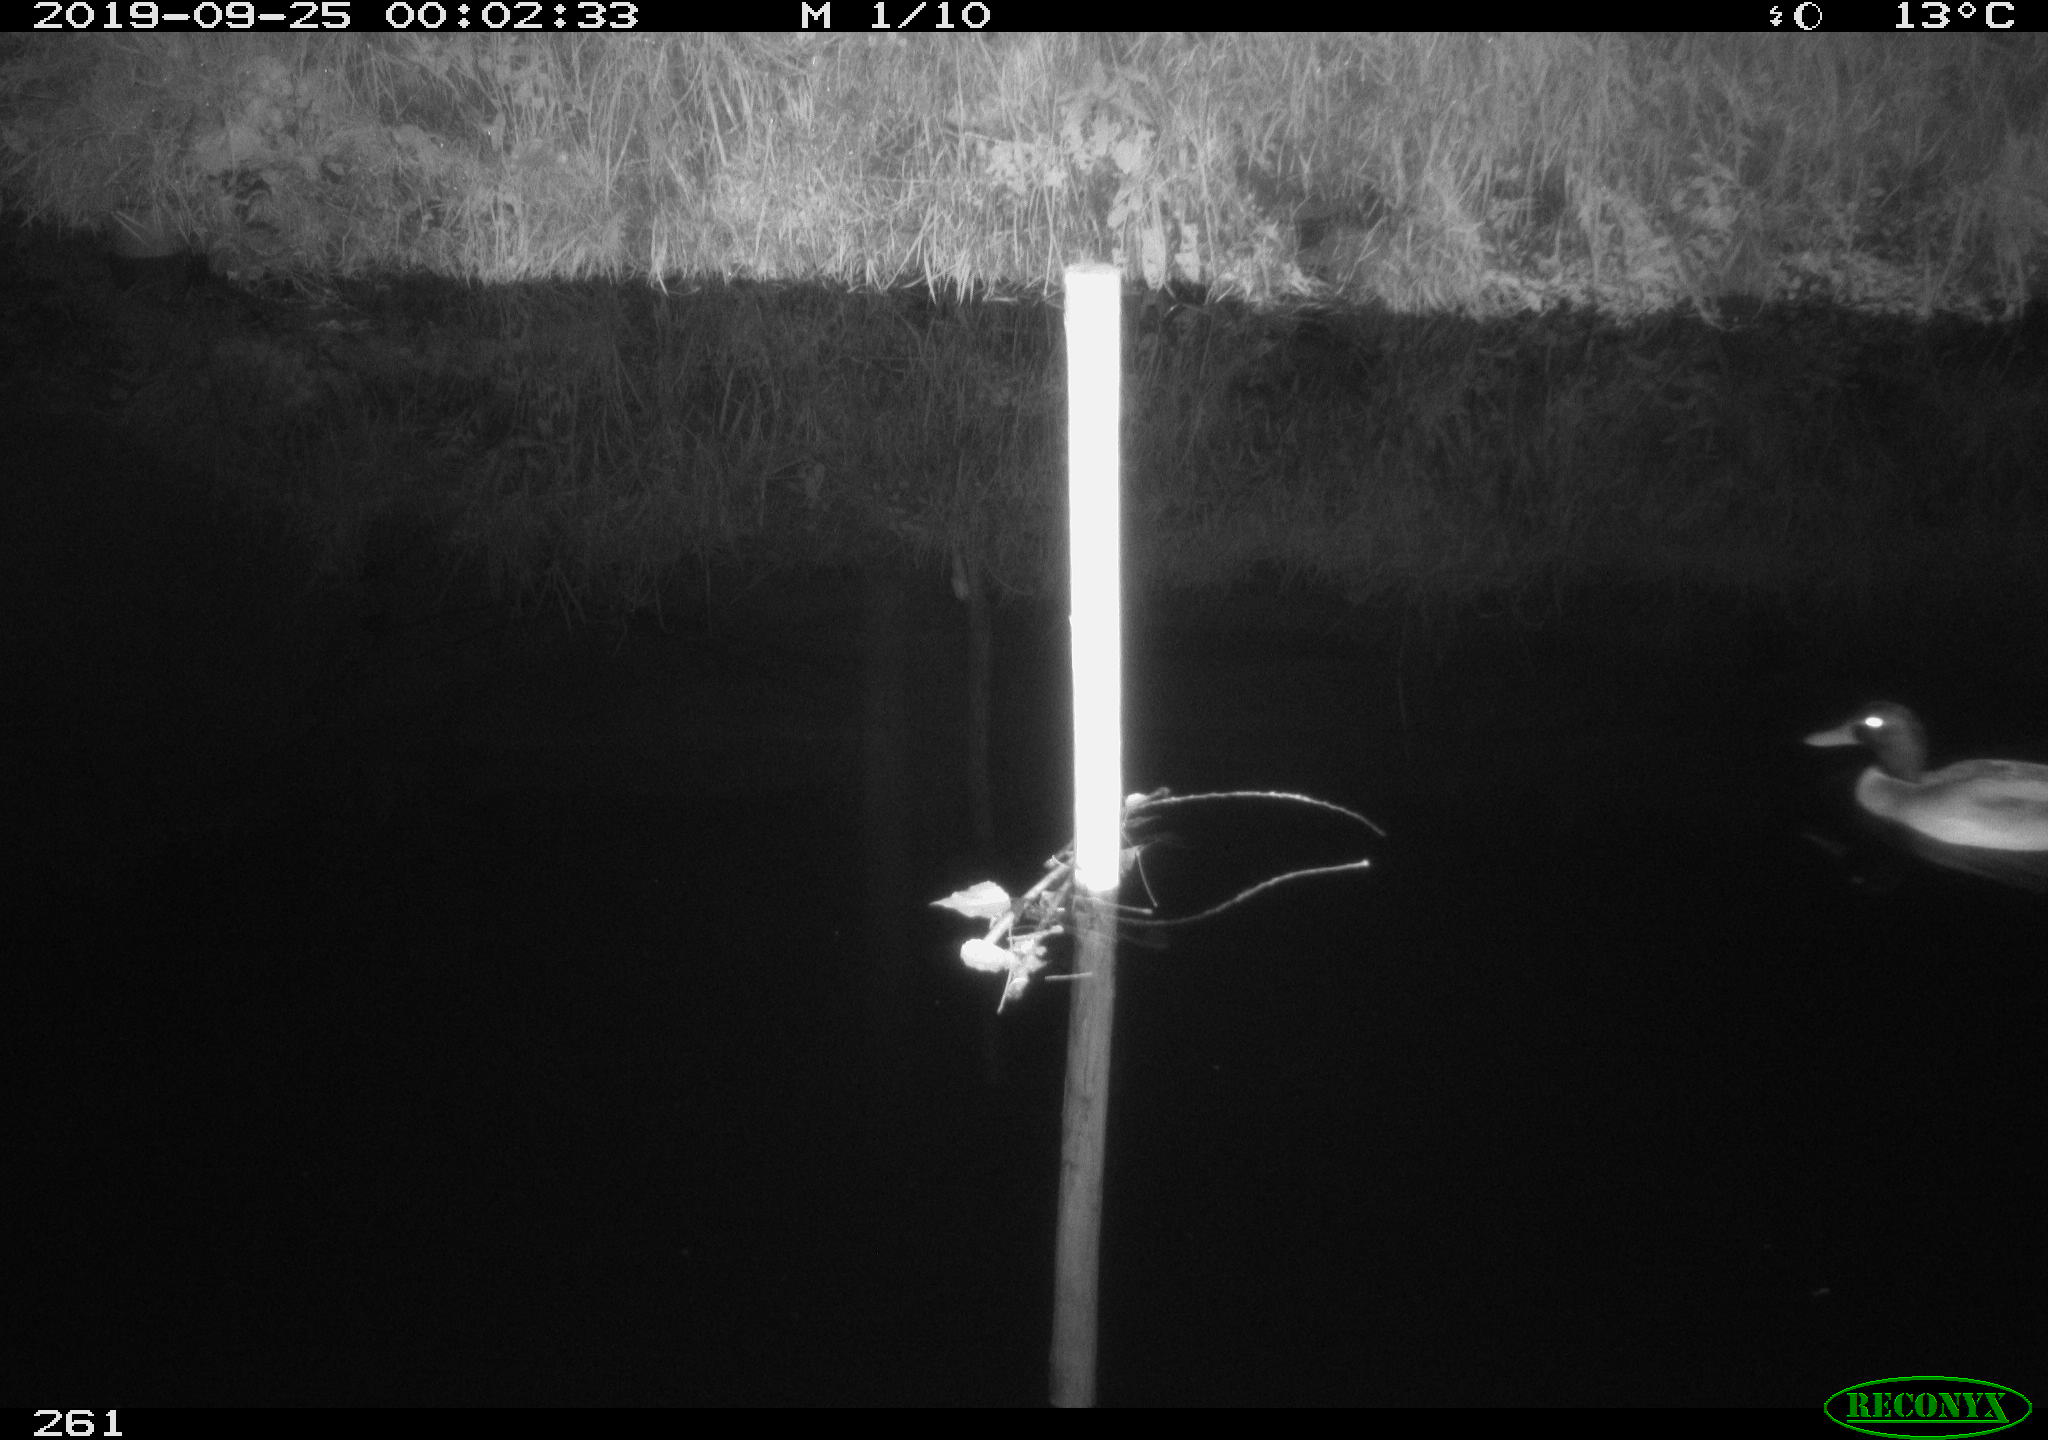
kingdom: Animalia
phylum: Chordata
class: Aves
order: Anseriformes
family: Anatidae
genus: Anas
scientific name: Anas platyrhynchos
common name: Mallard
